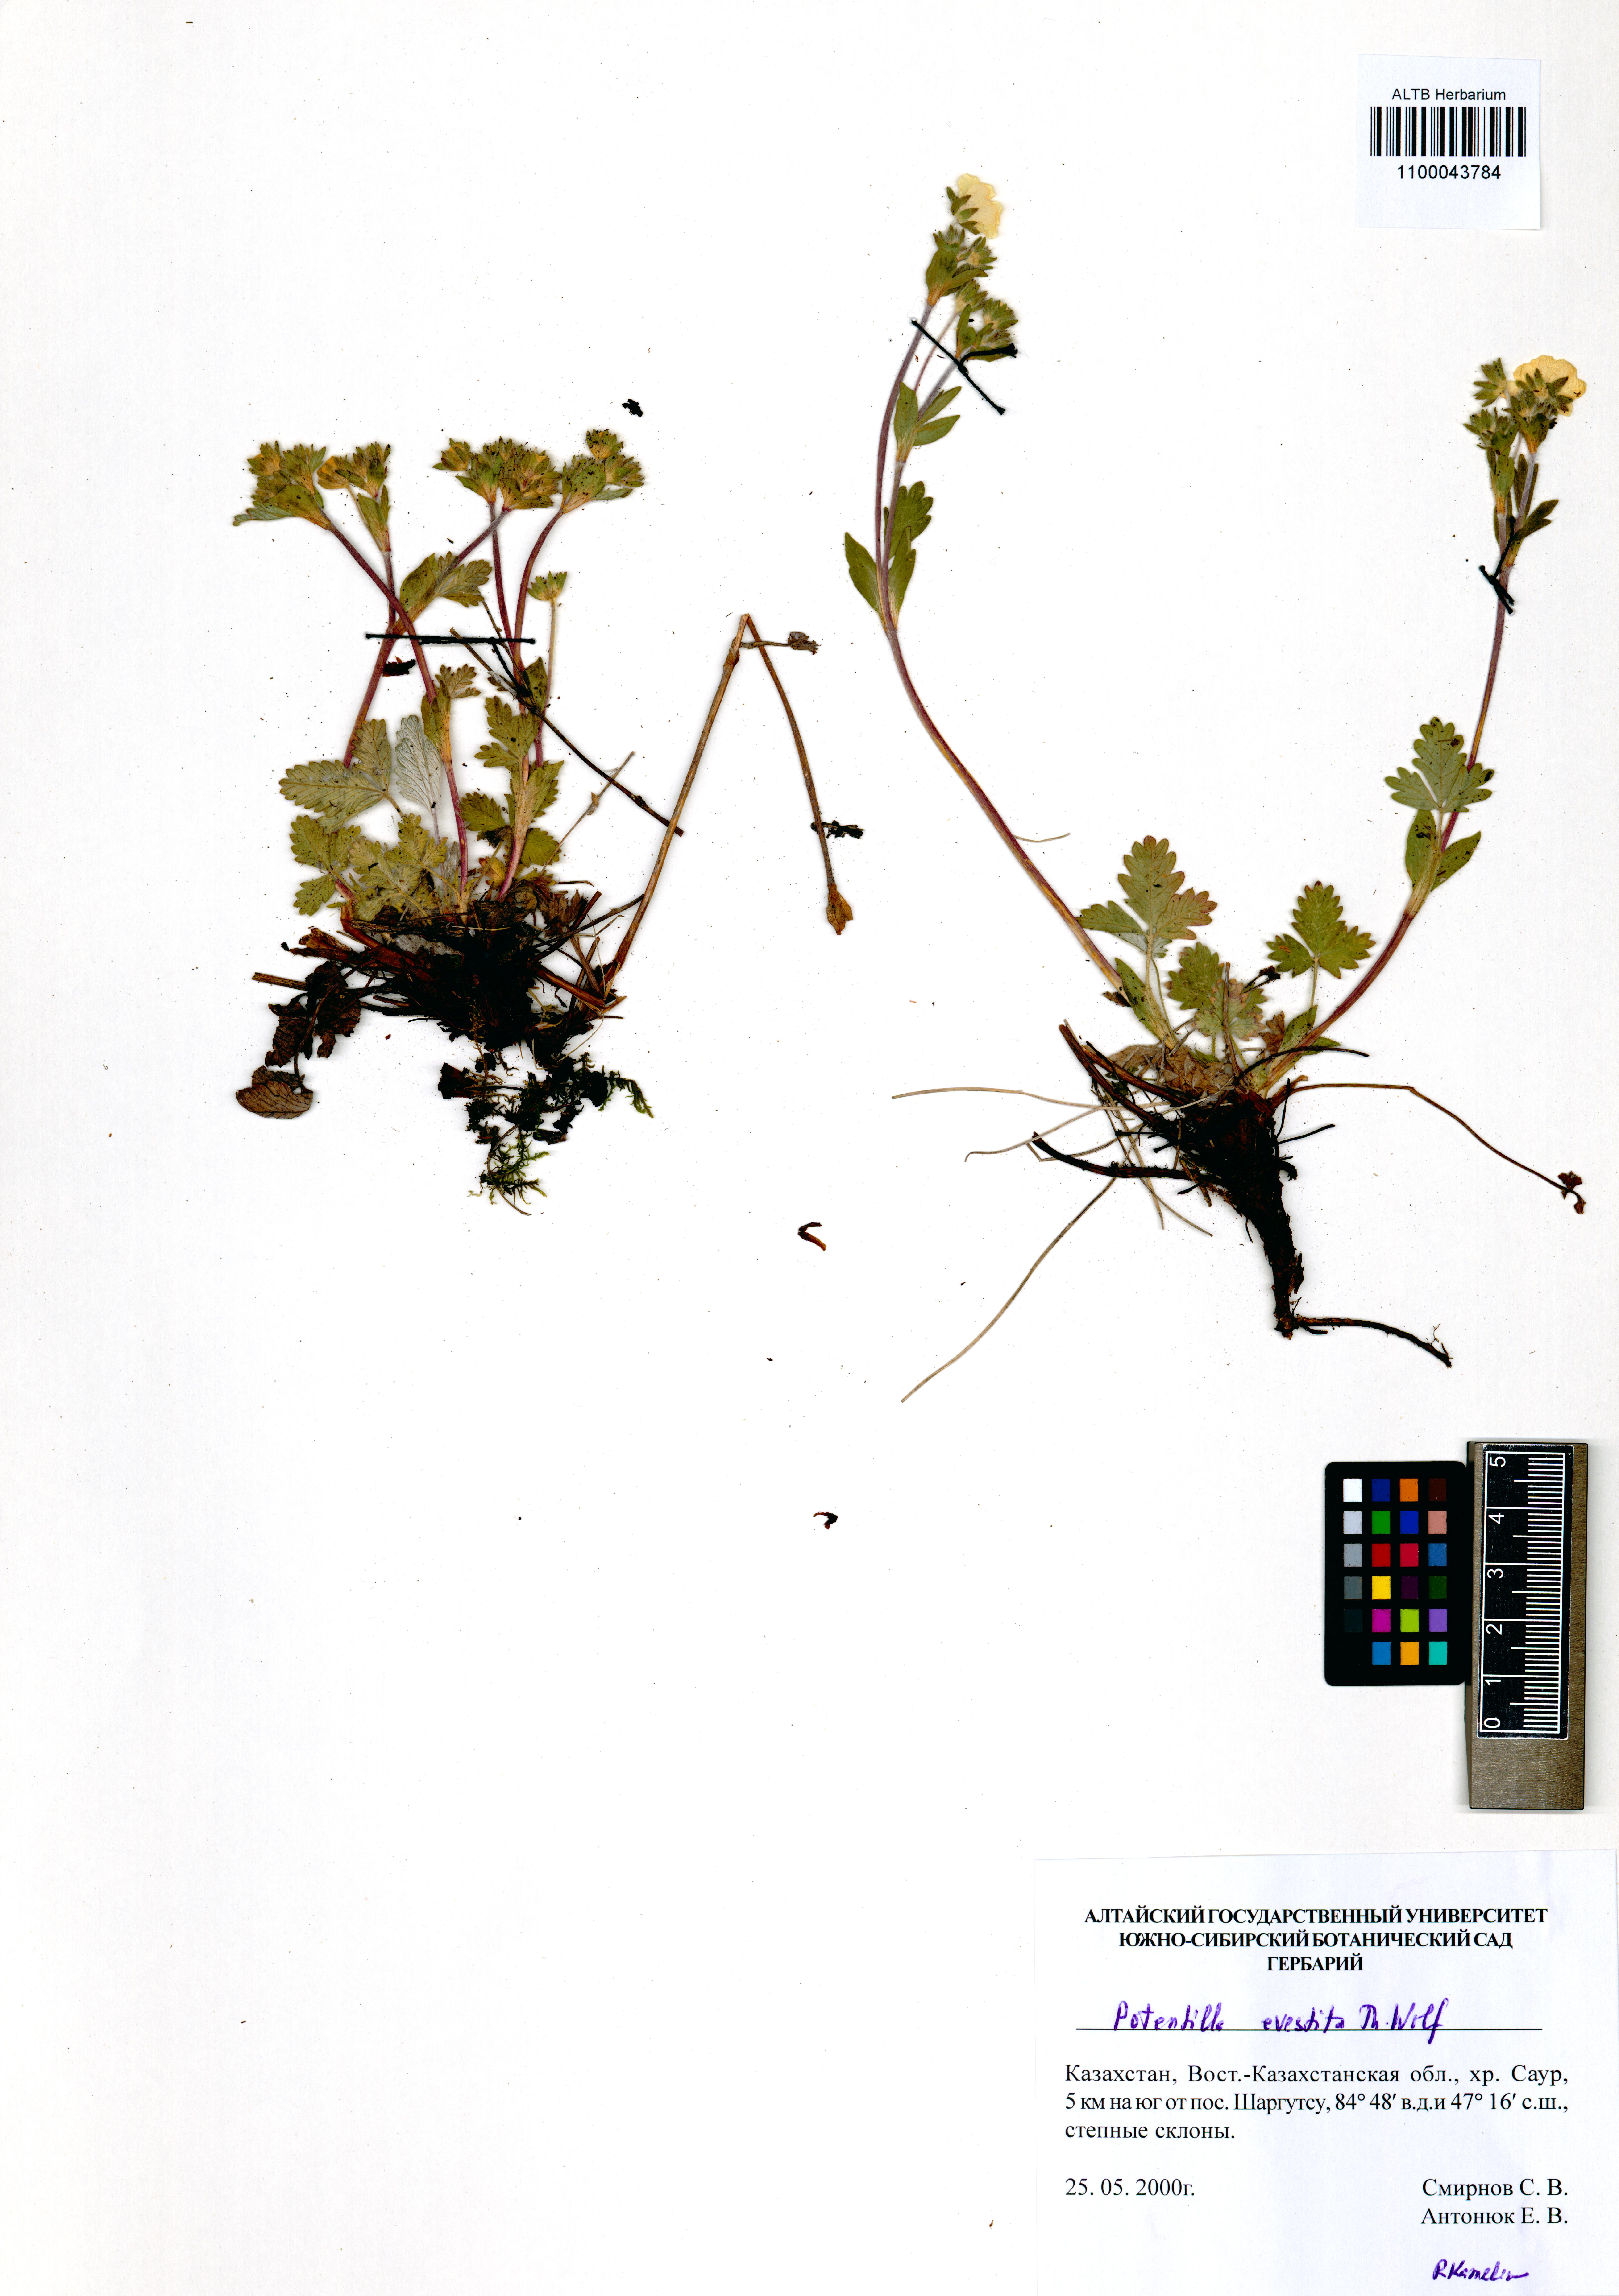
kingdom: Plantae
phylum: Tracheophyta
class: Magnoliopsida
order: Rosales
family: Rosaceae
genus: Potentilla
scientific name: Potentilla evestita
